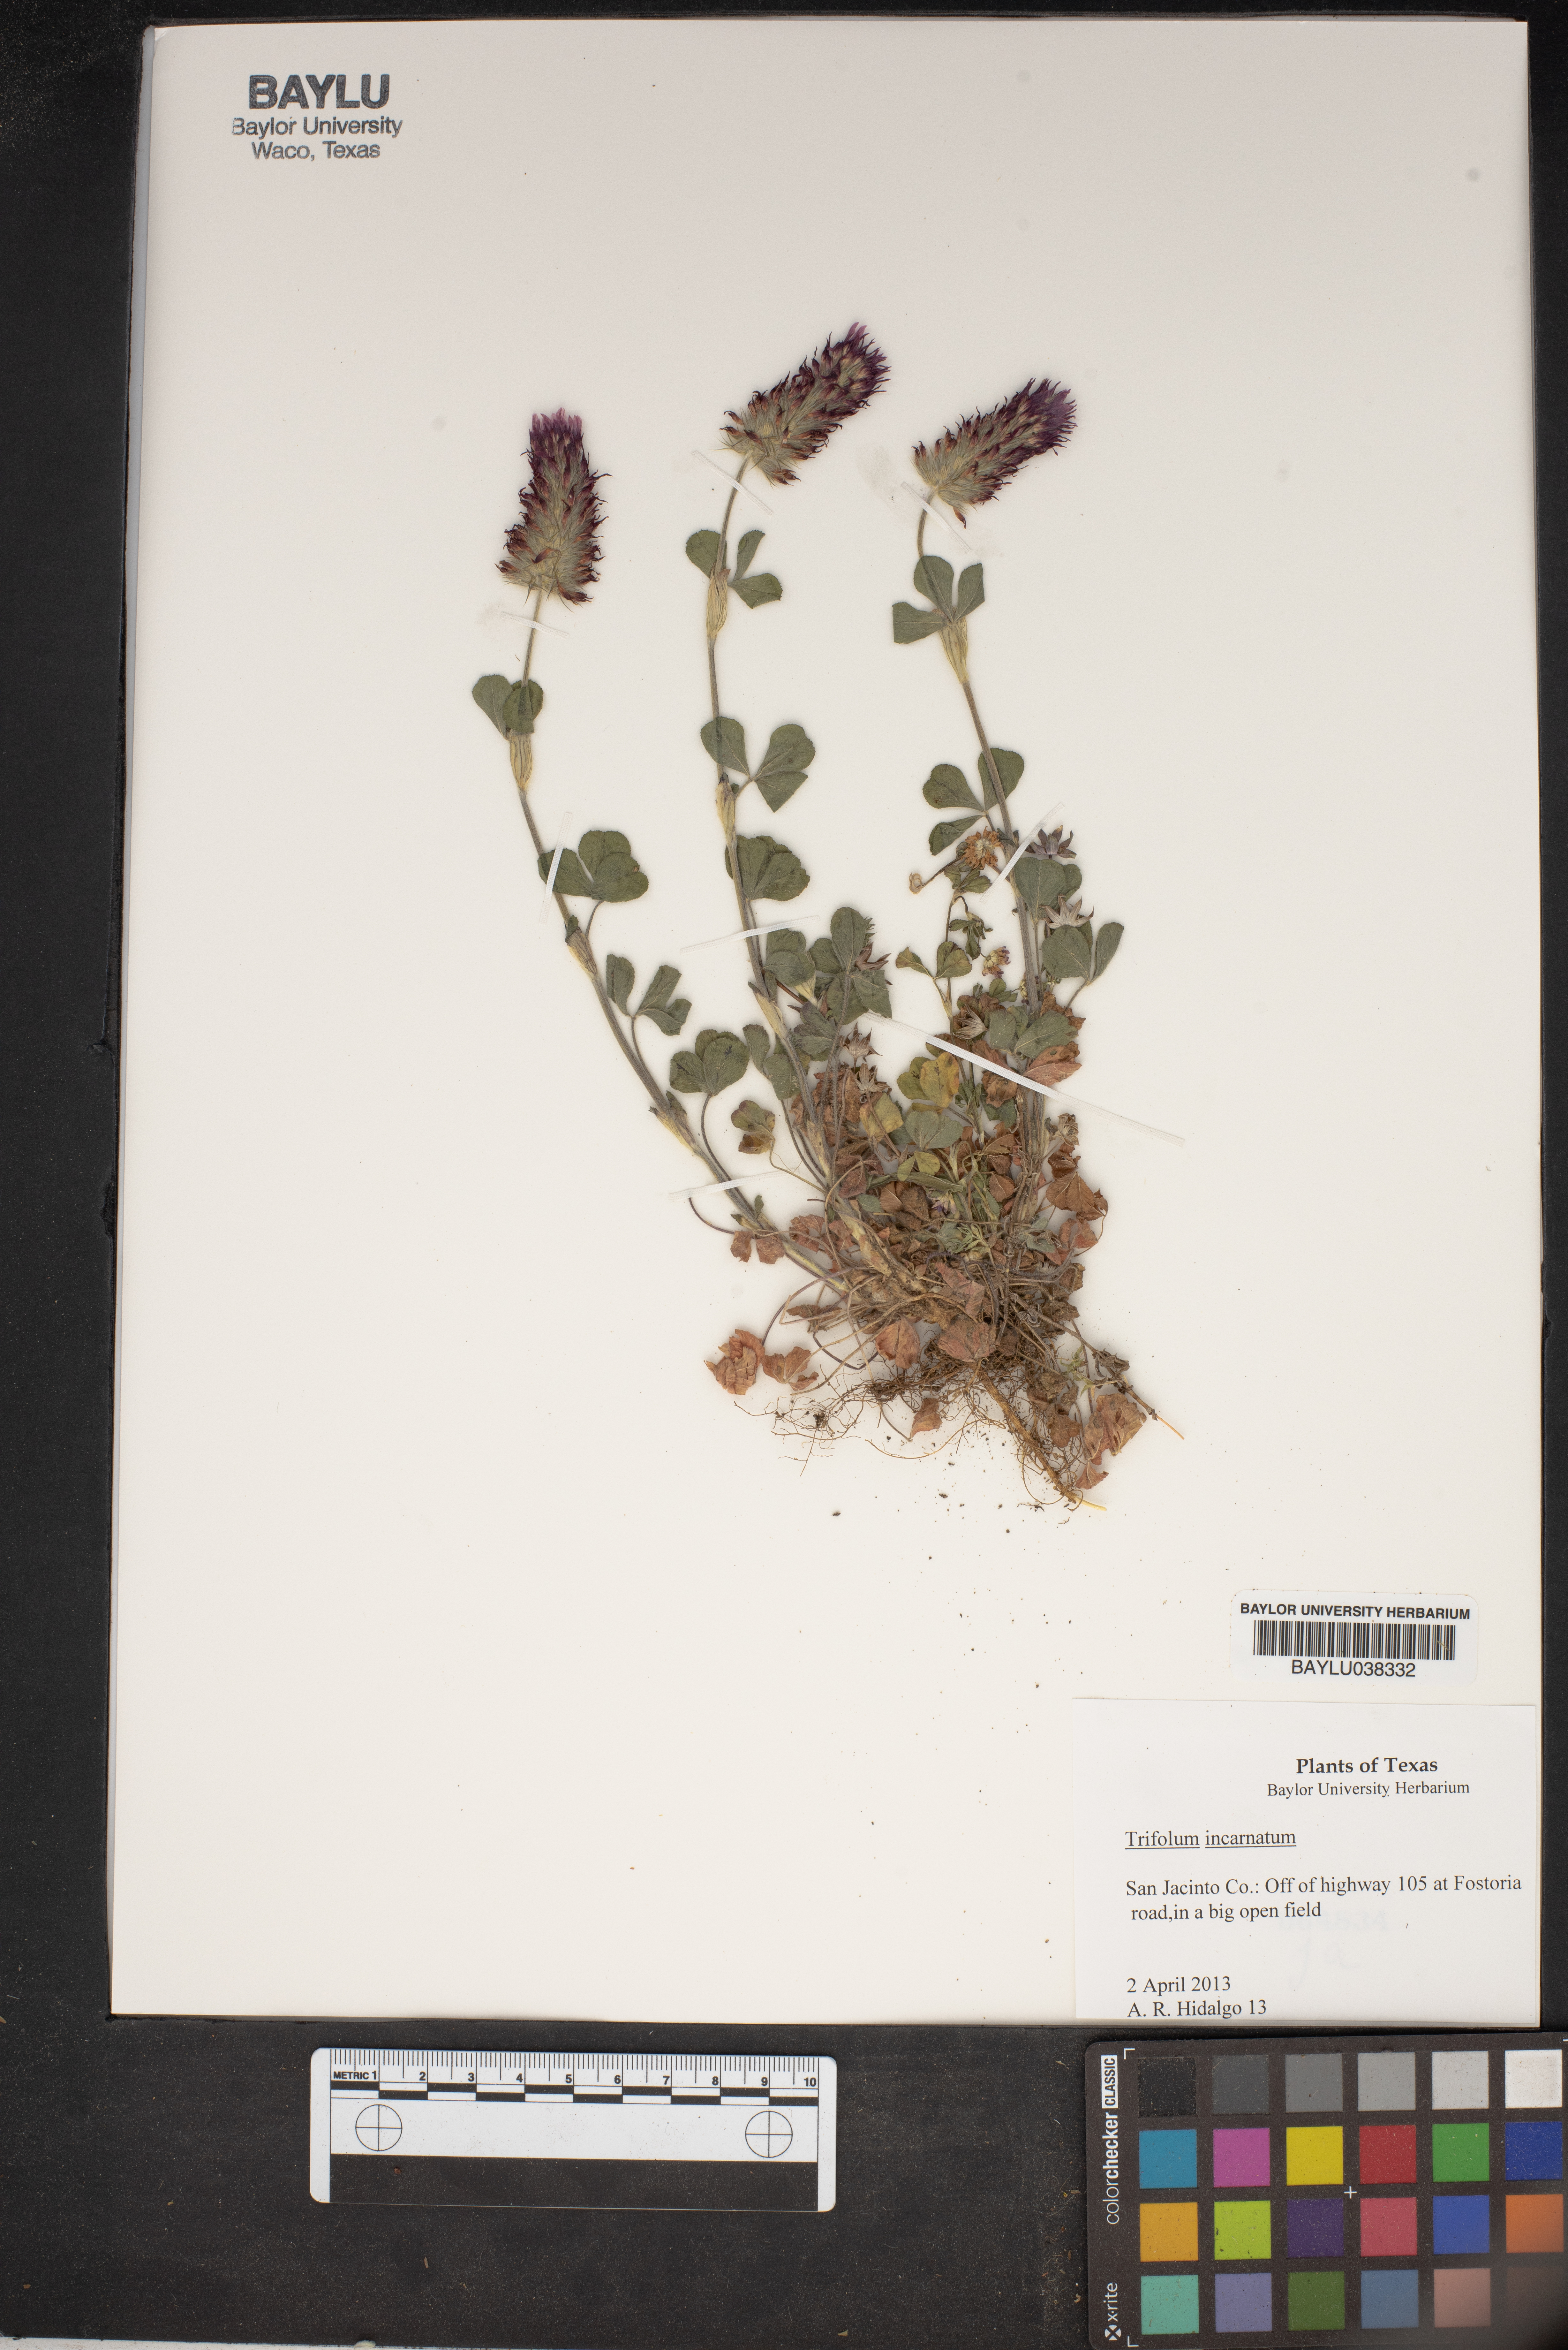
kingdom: Plantae
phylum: Tracheophyta
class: Magnoliopsida
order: Fabales
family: Fabaceae
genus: Trifolium
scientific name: Trifolium incarnatum
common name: Crimson clover
